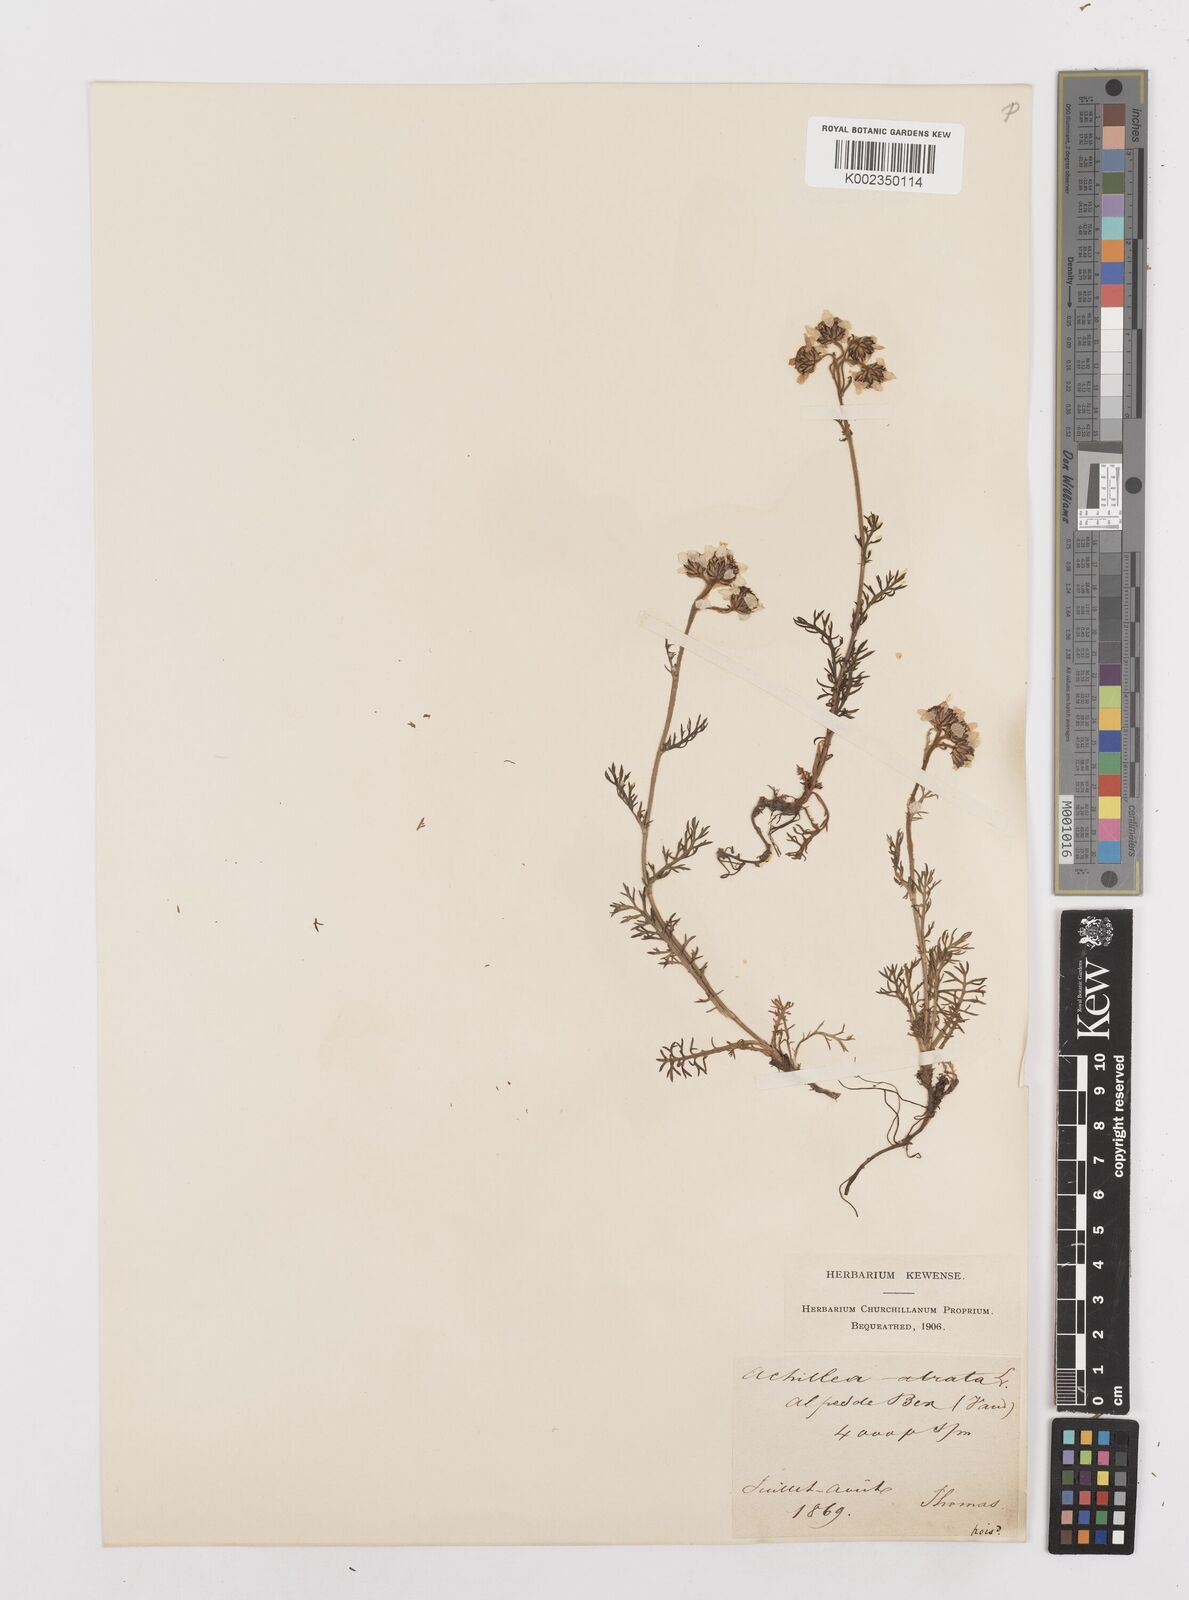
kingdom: Plantae
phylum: Tracheophyta
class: Magnoliopsida
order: Asterales
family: Asteraceae
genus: Achillea
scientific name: Achillea atrata
